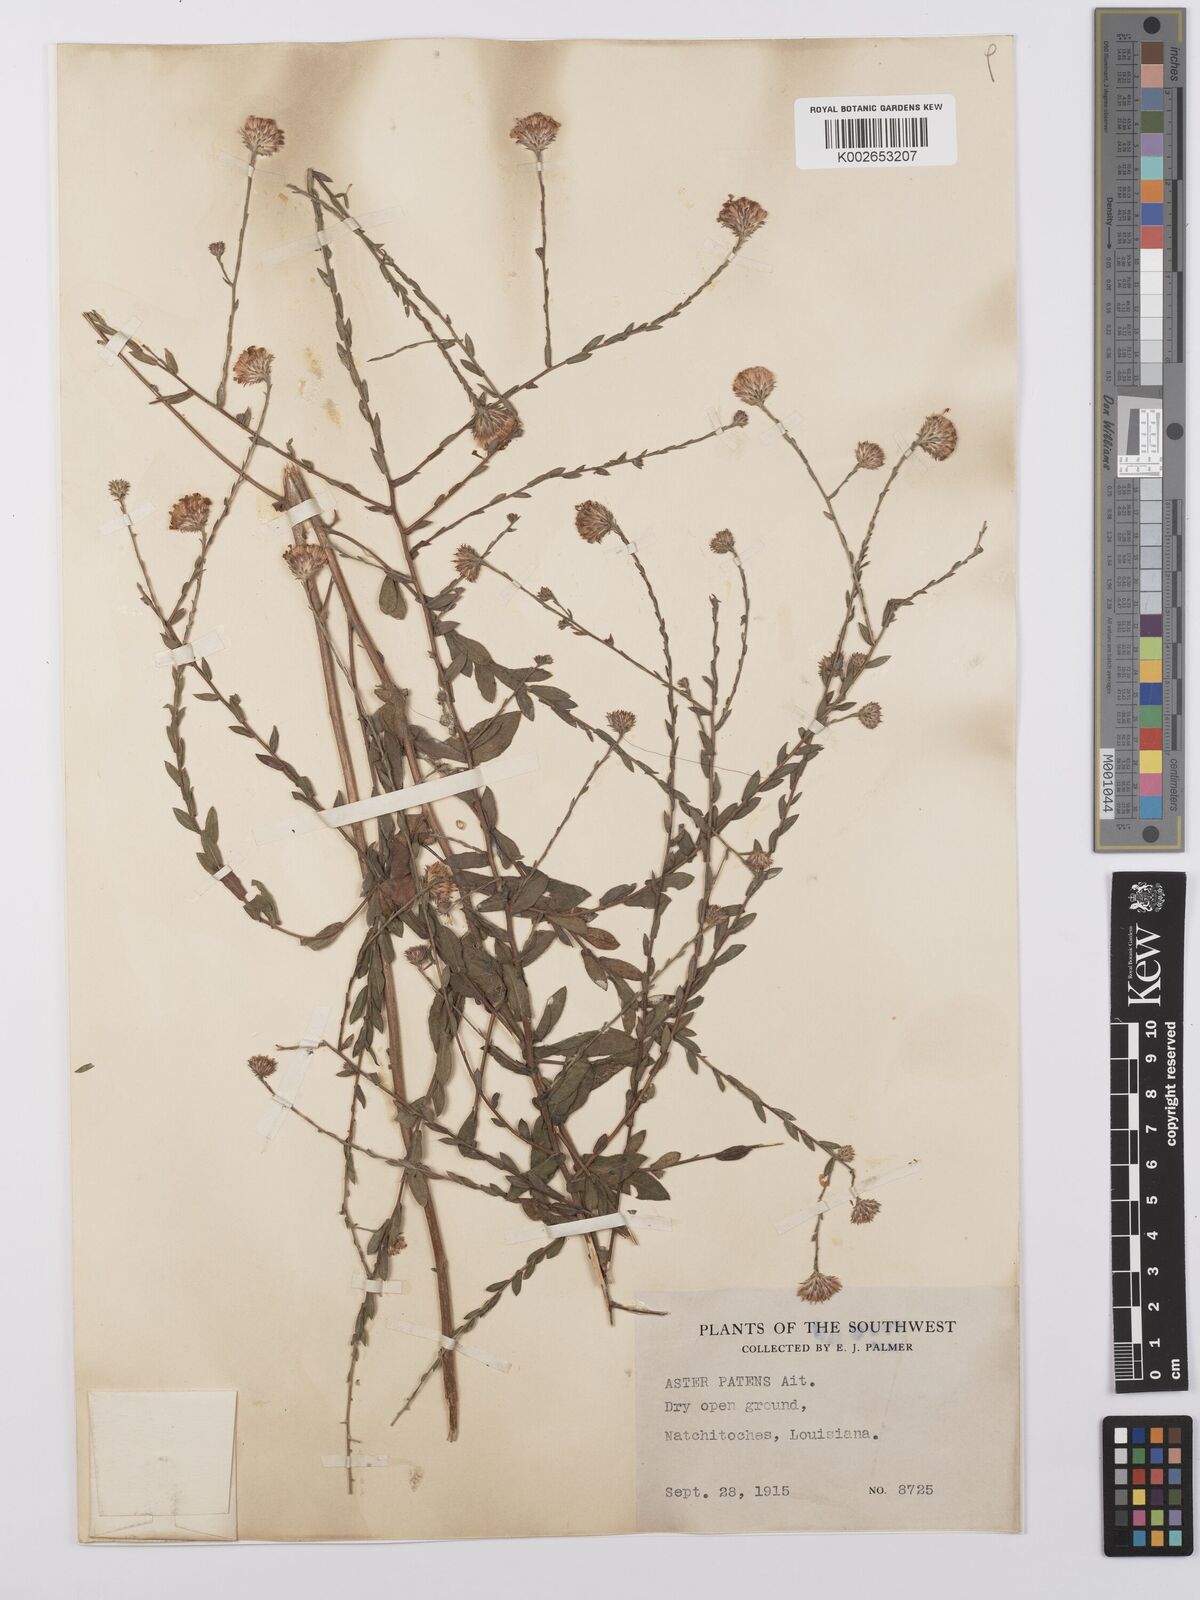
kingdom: Plantae
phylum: Tracheophyta
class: Magnoliopsida
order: Asterales
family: Asteraceae
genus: Symphyotrichum
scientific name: Symphyotrichum patens
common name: Late purple aster
